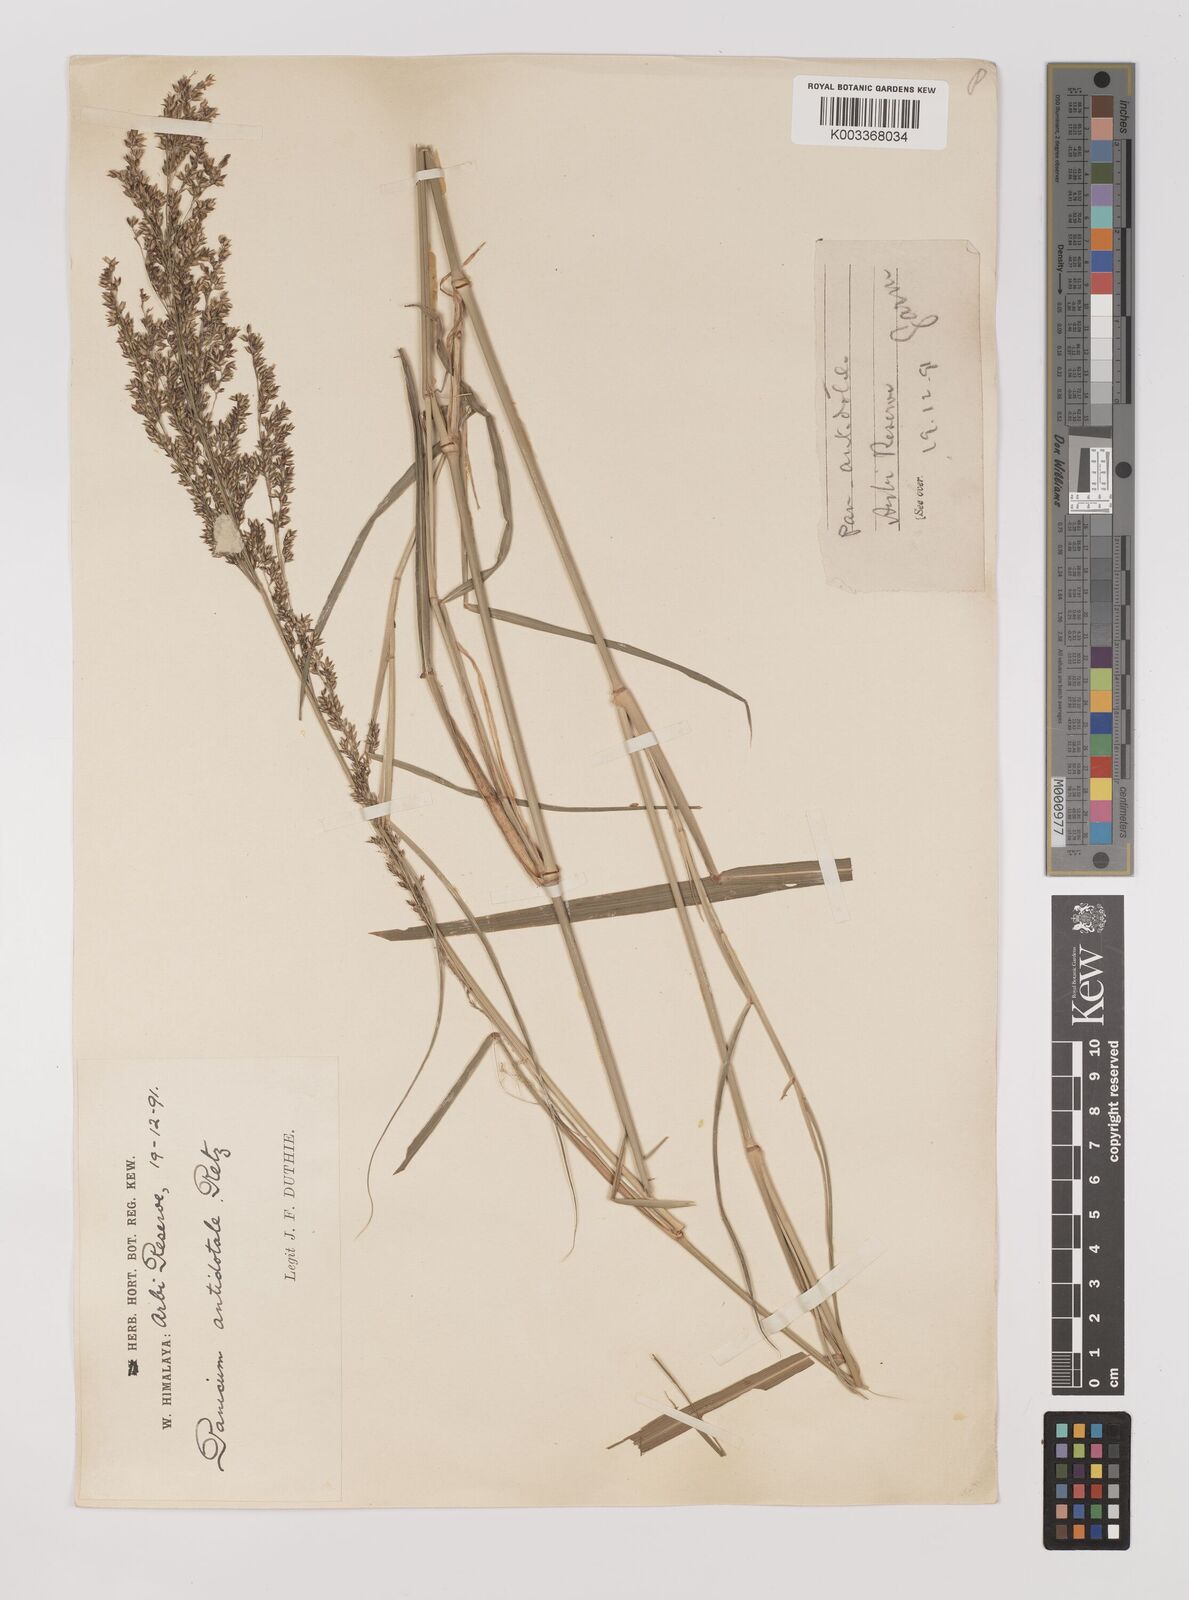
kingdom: Plantae
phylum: Tracheophyta
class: Liliopsida
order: Poales
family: Poaceae
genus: Panicum
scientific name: Panicum antidotale
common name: Blue panicum
